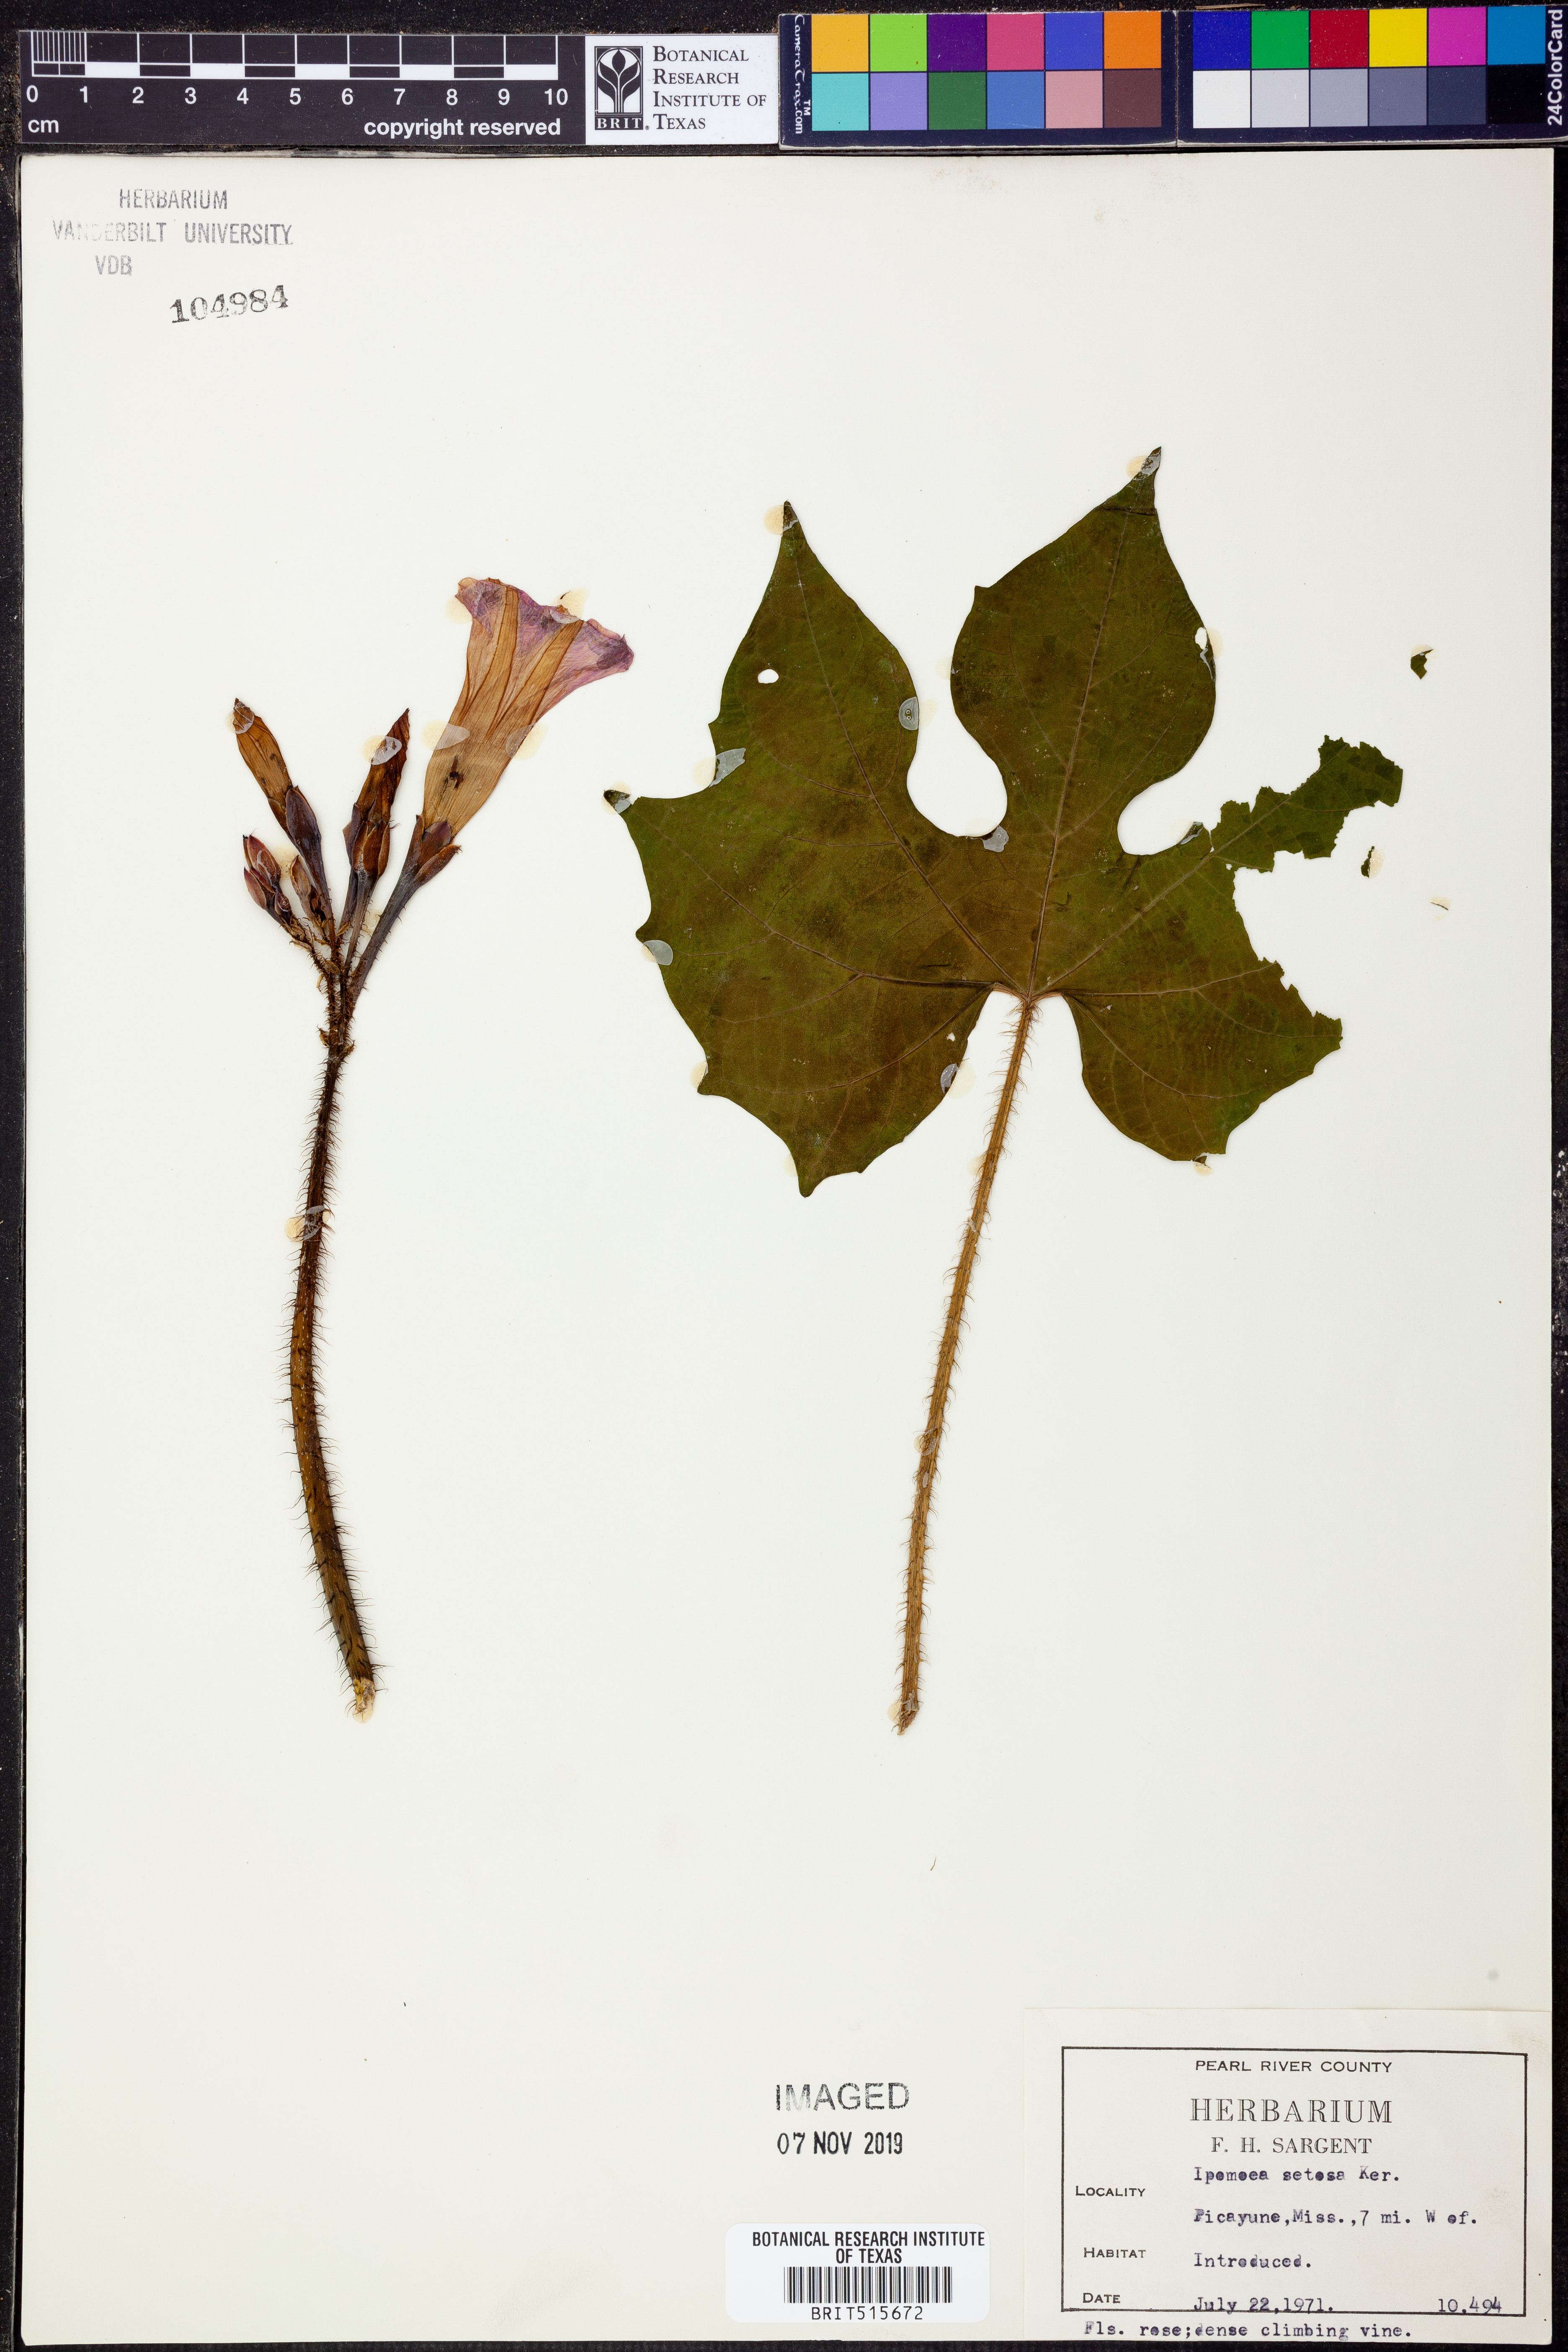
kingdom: Plantae
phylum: Tracheophyta
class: Magnoliopsida
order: Solanales
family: Convolvulaceae
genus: Ipomoea
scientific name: Ipomoea setosa
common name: Brazilian morning-glory
